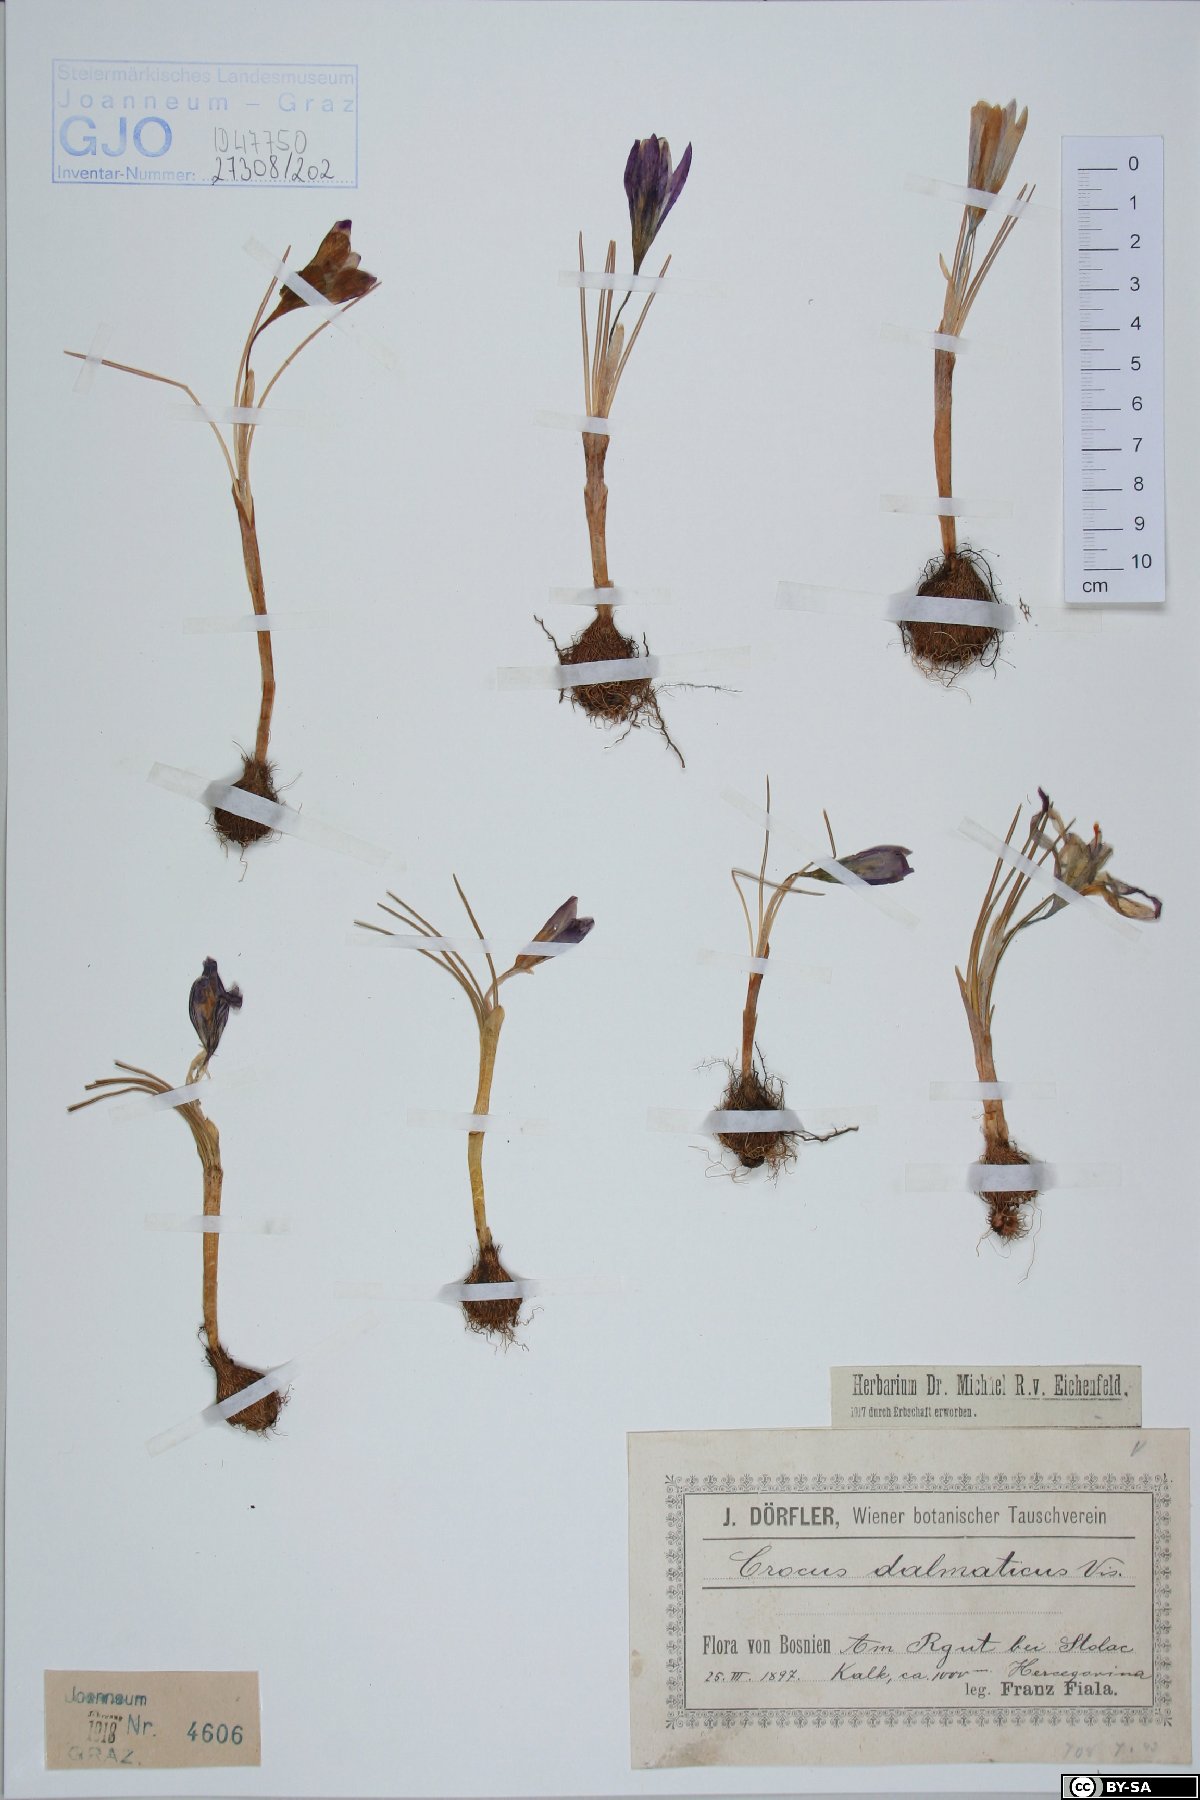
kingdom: Plantae
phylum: Tracheophyta
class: Liliopsida
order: Asparagales
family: Iridaceae
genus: Crocus
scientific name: Crocus dalmaticus
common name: Dalmatian saffron
